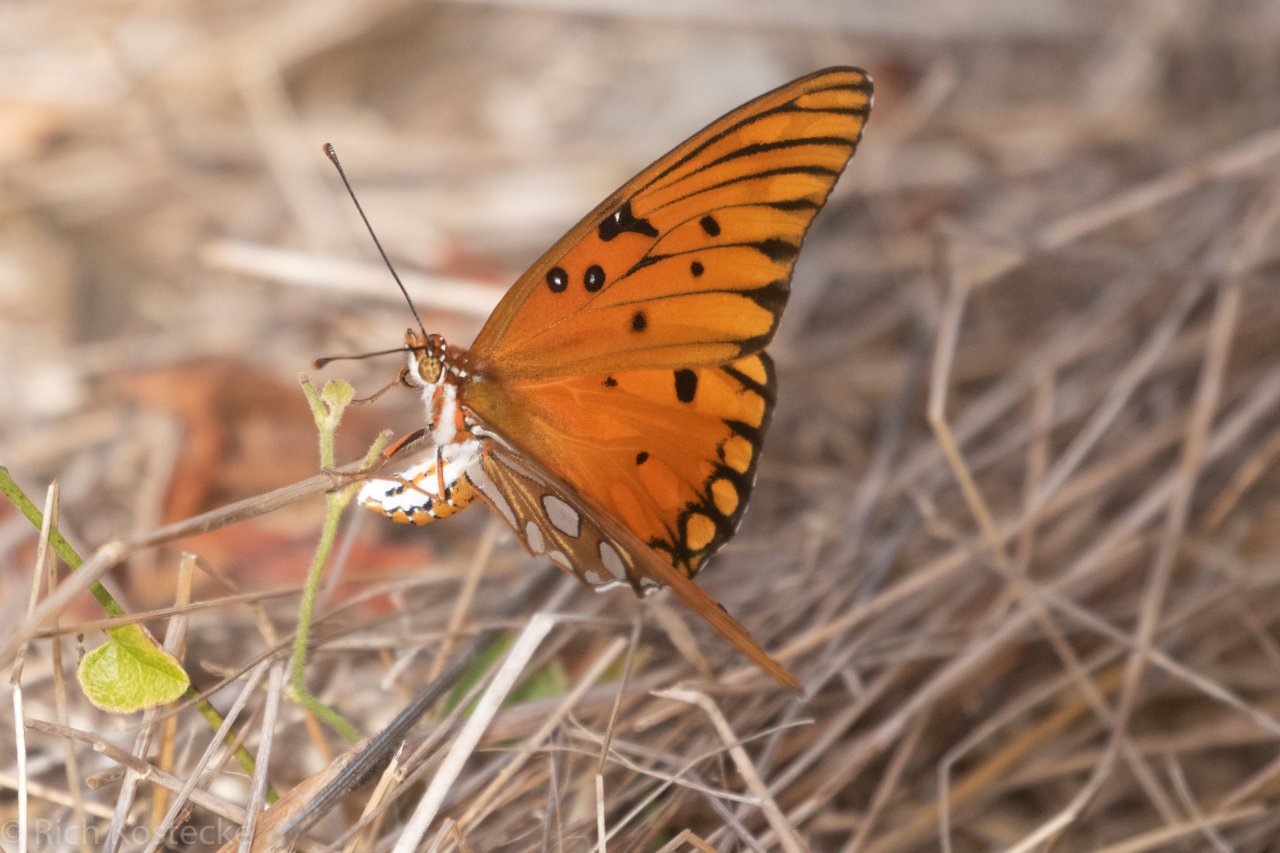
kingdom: Animalia
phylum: Arthropoda
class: Insecta
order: Lepidoptera
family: Nymphalidae
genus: Dione
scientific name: Dione vanillae
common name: Gulf Fritillary
